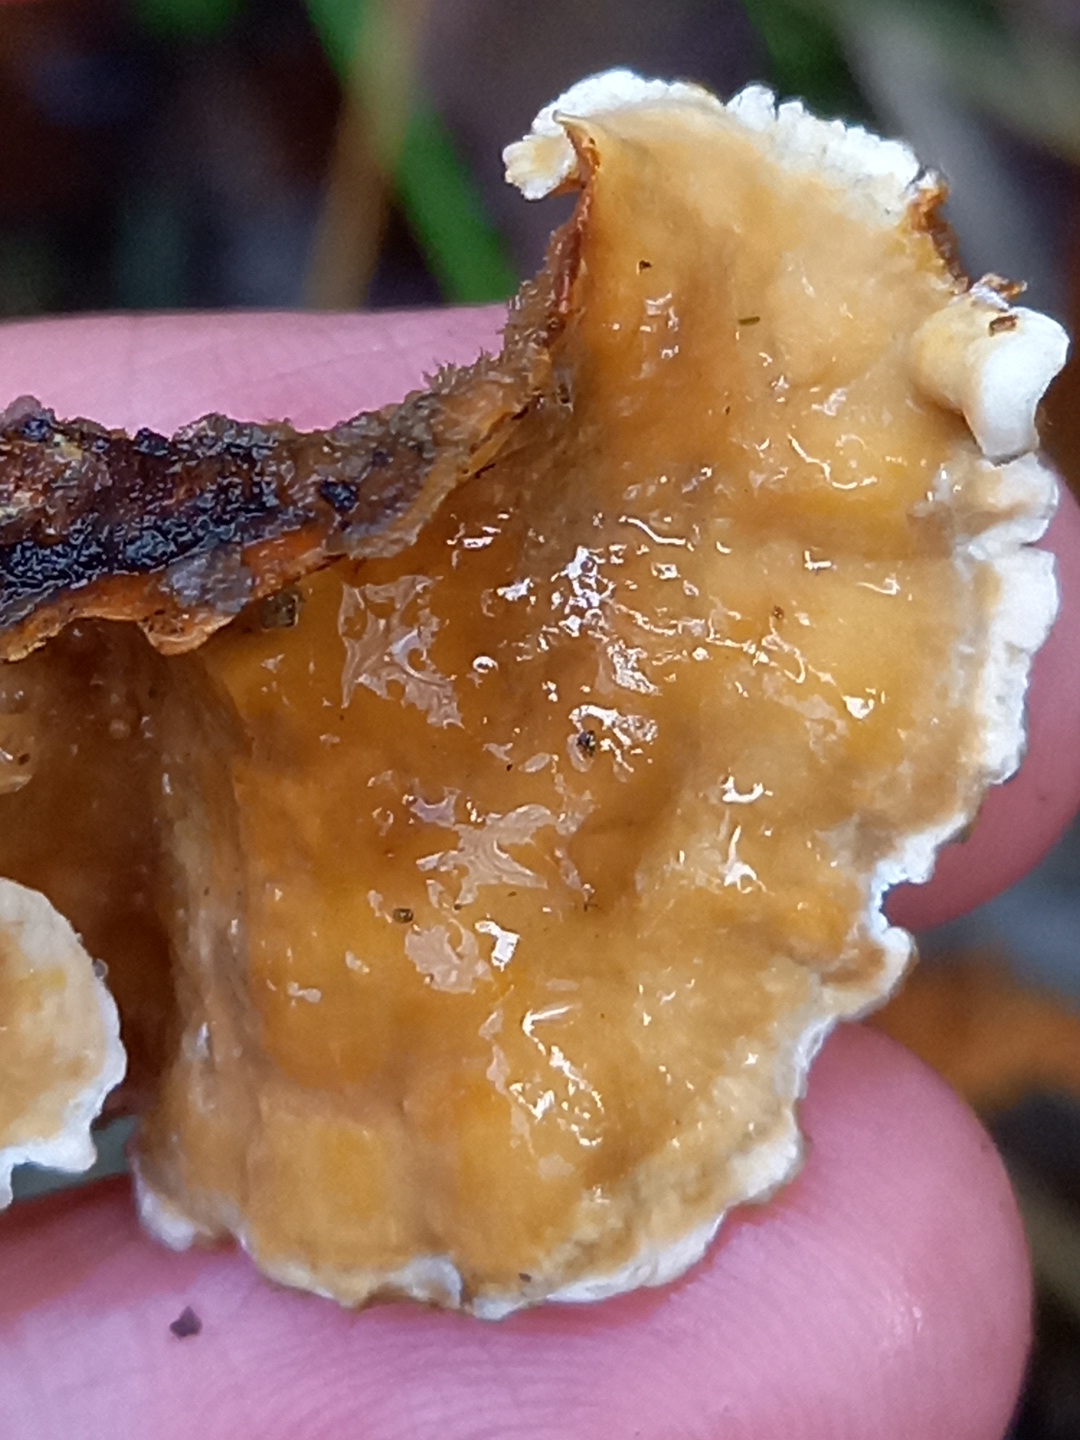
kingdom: Fungi
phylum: Basidiomycota
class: Agaricomycetes
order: Russulales
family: Stereaceae
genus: Stereum
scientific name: Stereum hirsutum
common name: håret lædersvamp
